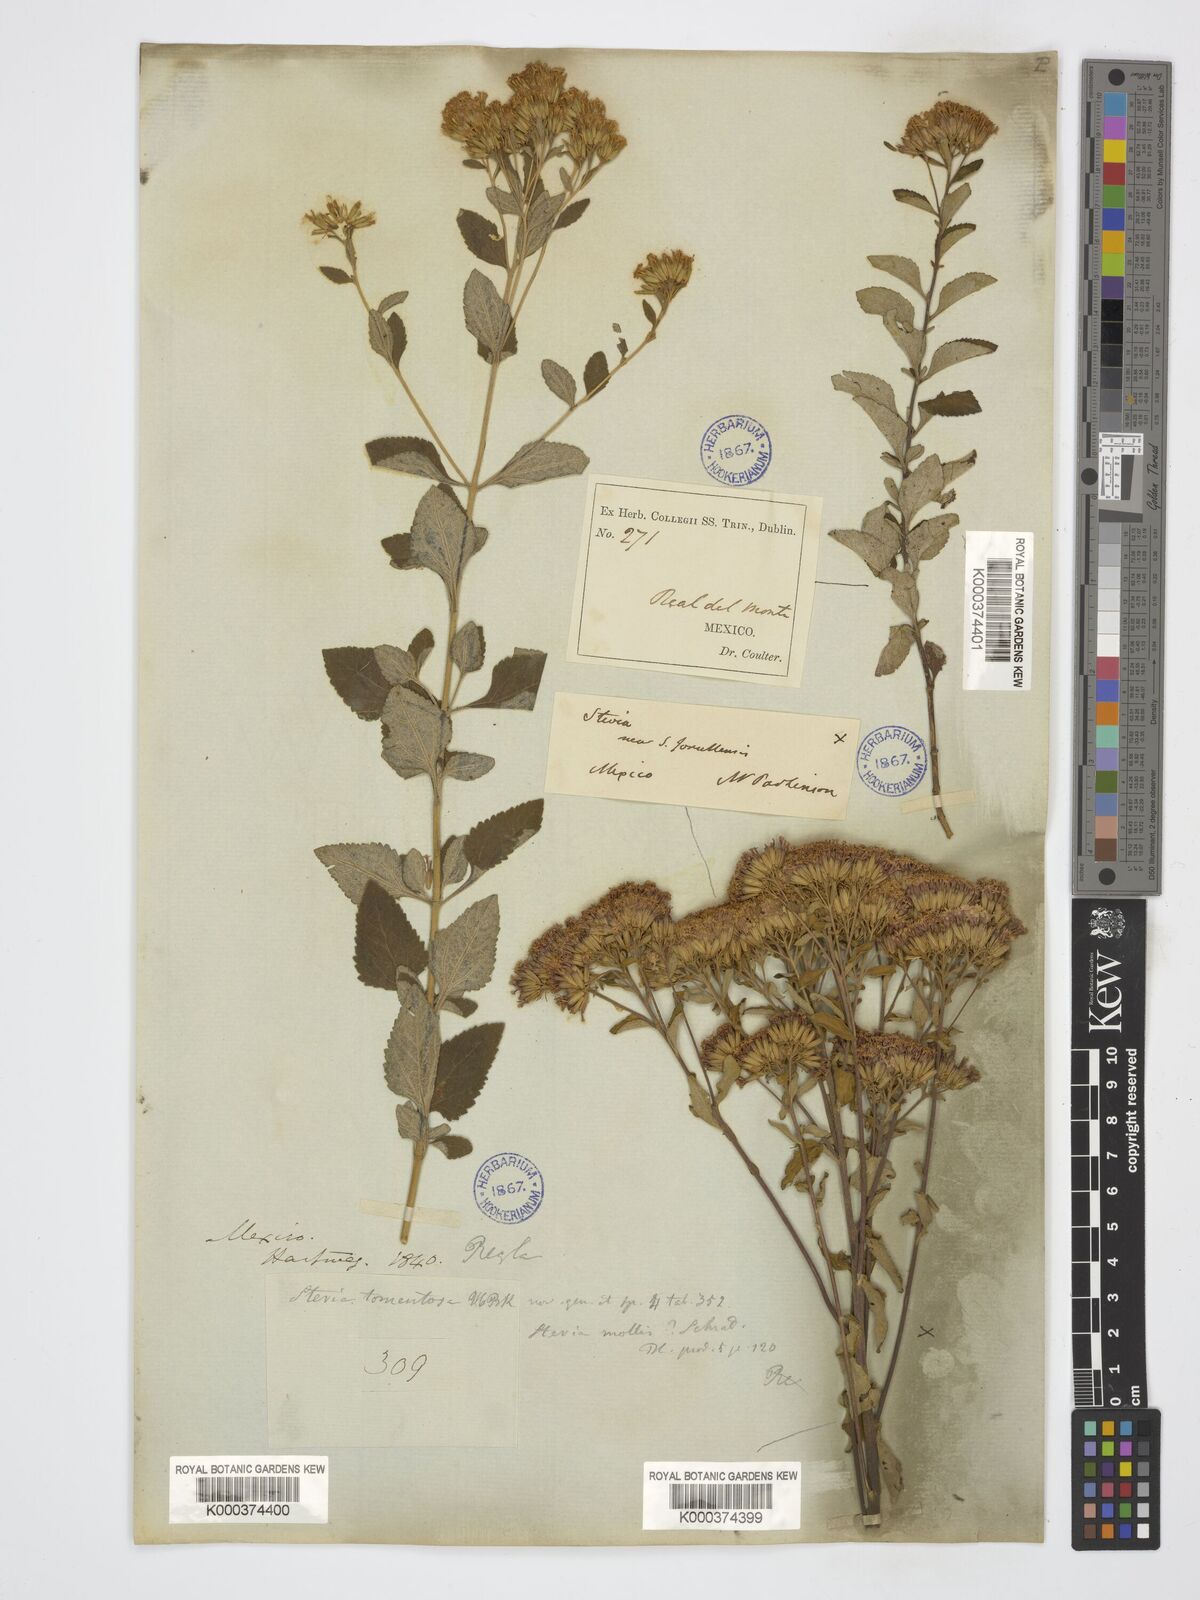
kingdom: Plantae
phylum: Tracheophyta
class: Magnoliopsida
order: Asterales
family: Asteraceae
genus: Stevia
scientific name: Stevia tomentosa
